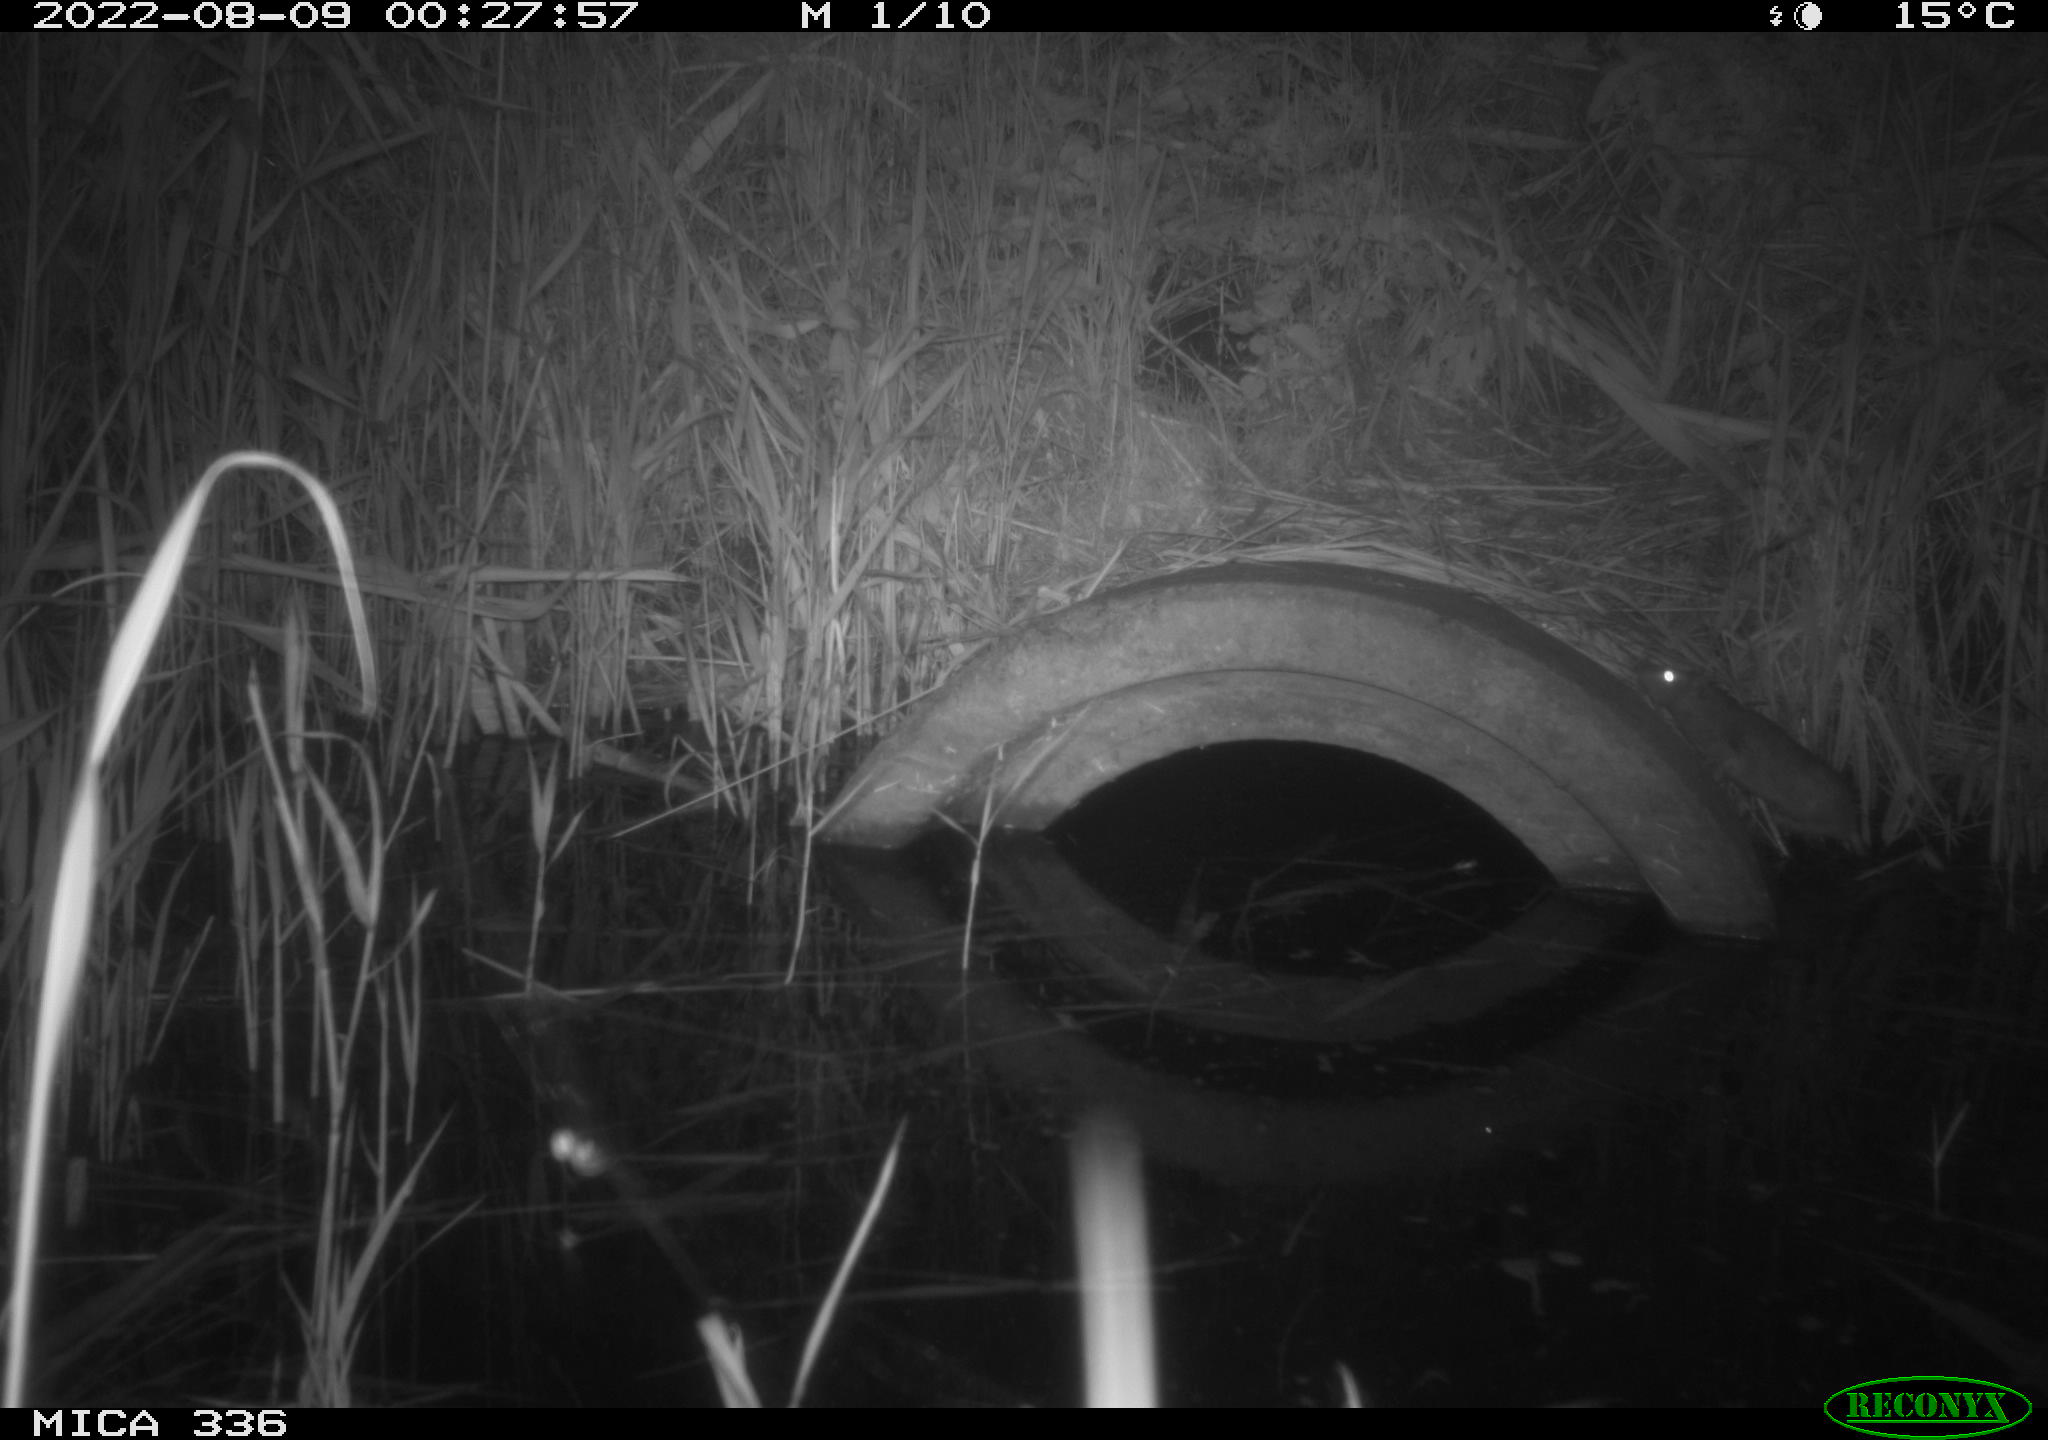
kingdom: Animalia
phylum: Chordata
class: Mammalia
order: Rodentia
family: Muridae
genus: Rattus
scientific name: Rattus norvegicus
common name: Brown rat
